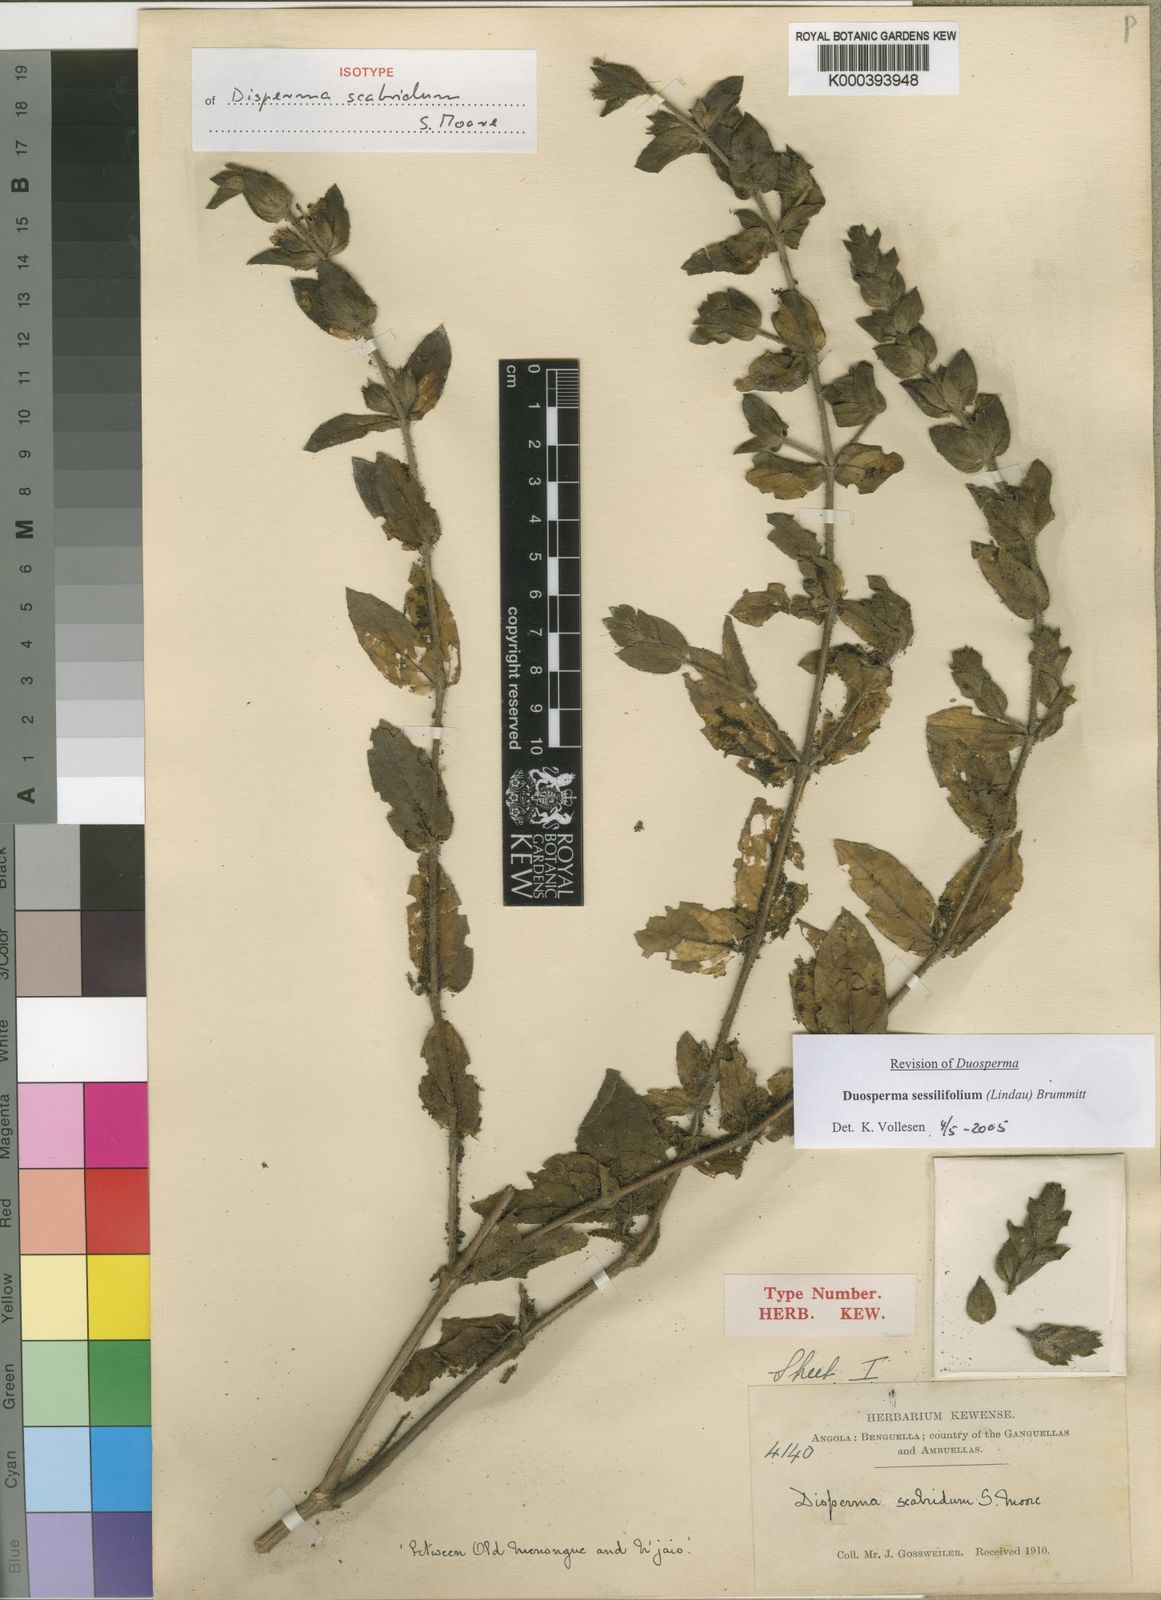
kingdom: Plantae
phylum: Tracheophyta
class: Magnoliopsida
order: Lamiales
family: Acanthaceae
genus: Duosperma
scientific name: Duosperma sessilifolium
